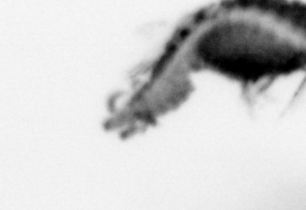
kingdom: Animalia
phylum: Annelida
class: Polychaeta
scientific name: Polychaeta
